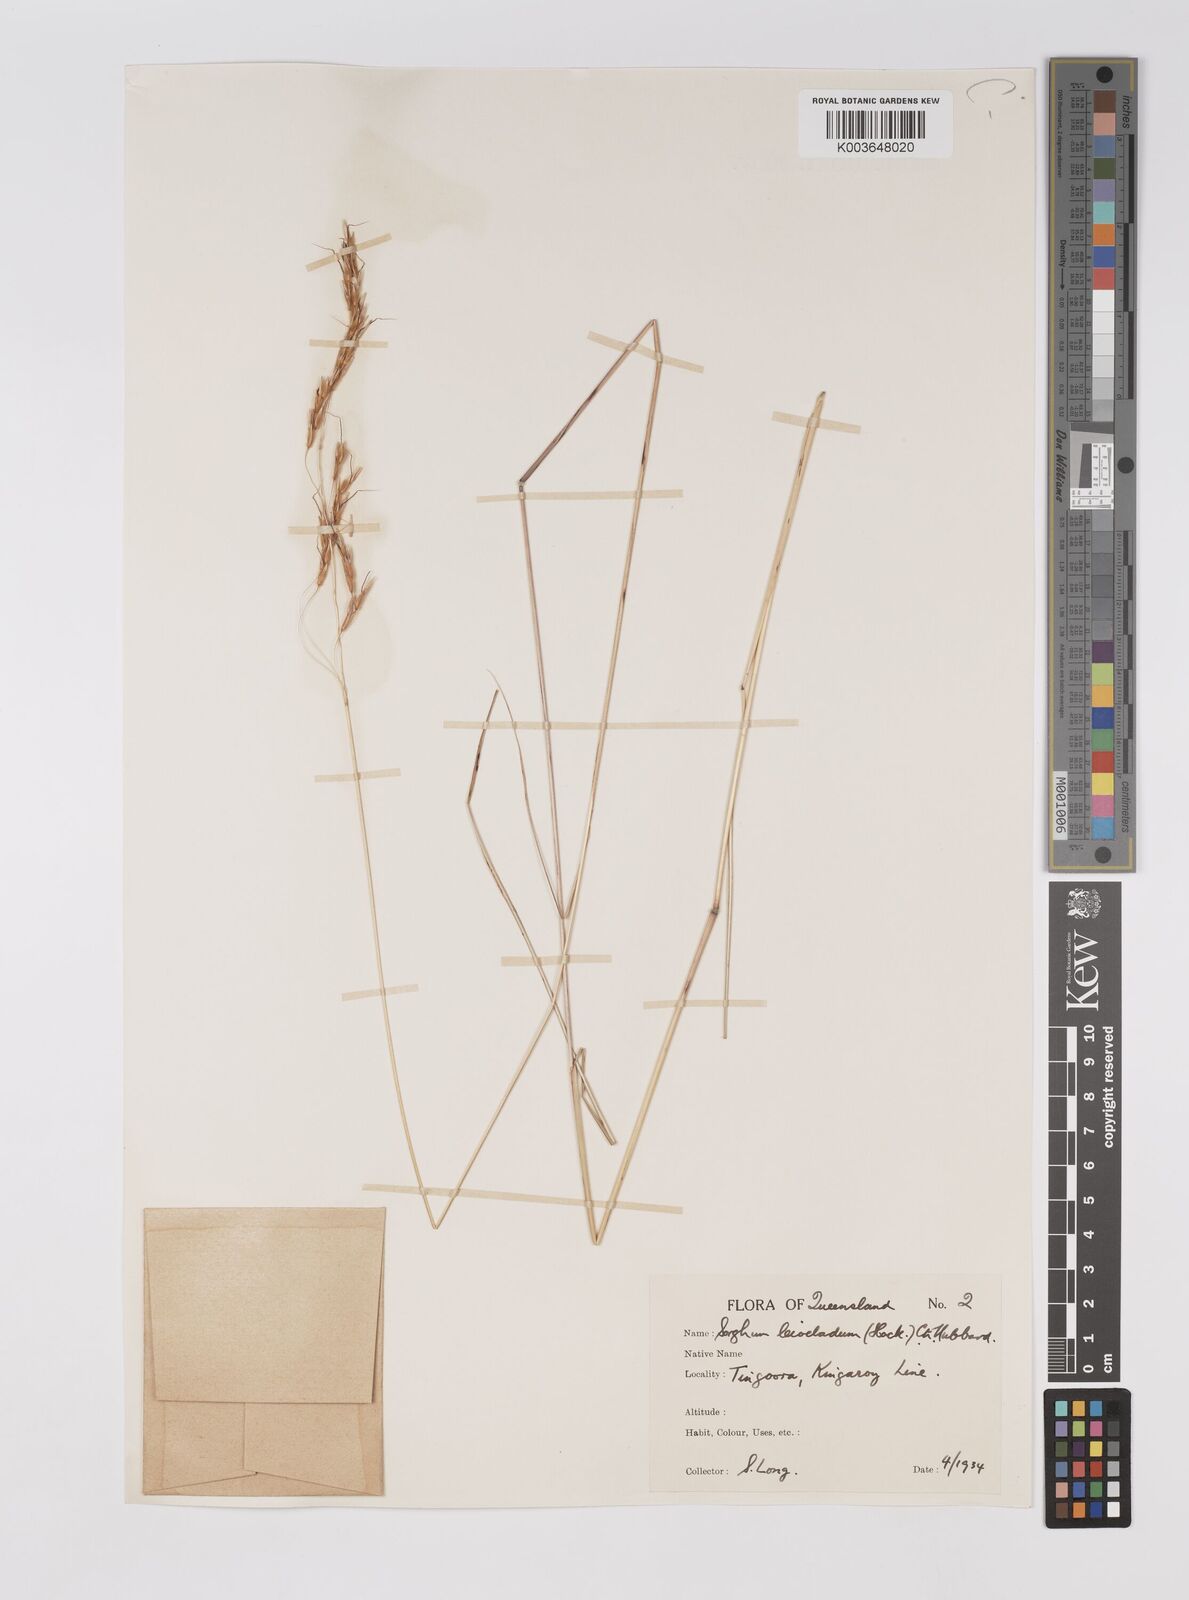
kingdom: Plantae
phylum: Tracheophyta
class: Liliopsida
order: Poales
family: Poaceae
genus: Sarga
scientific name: Sarga leioclada
